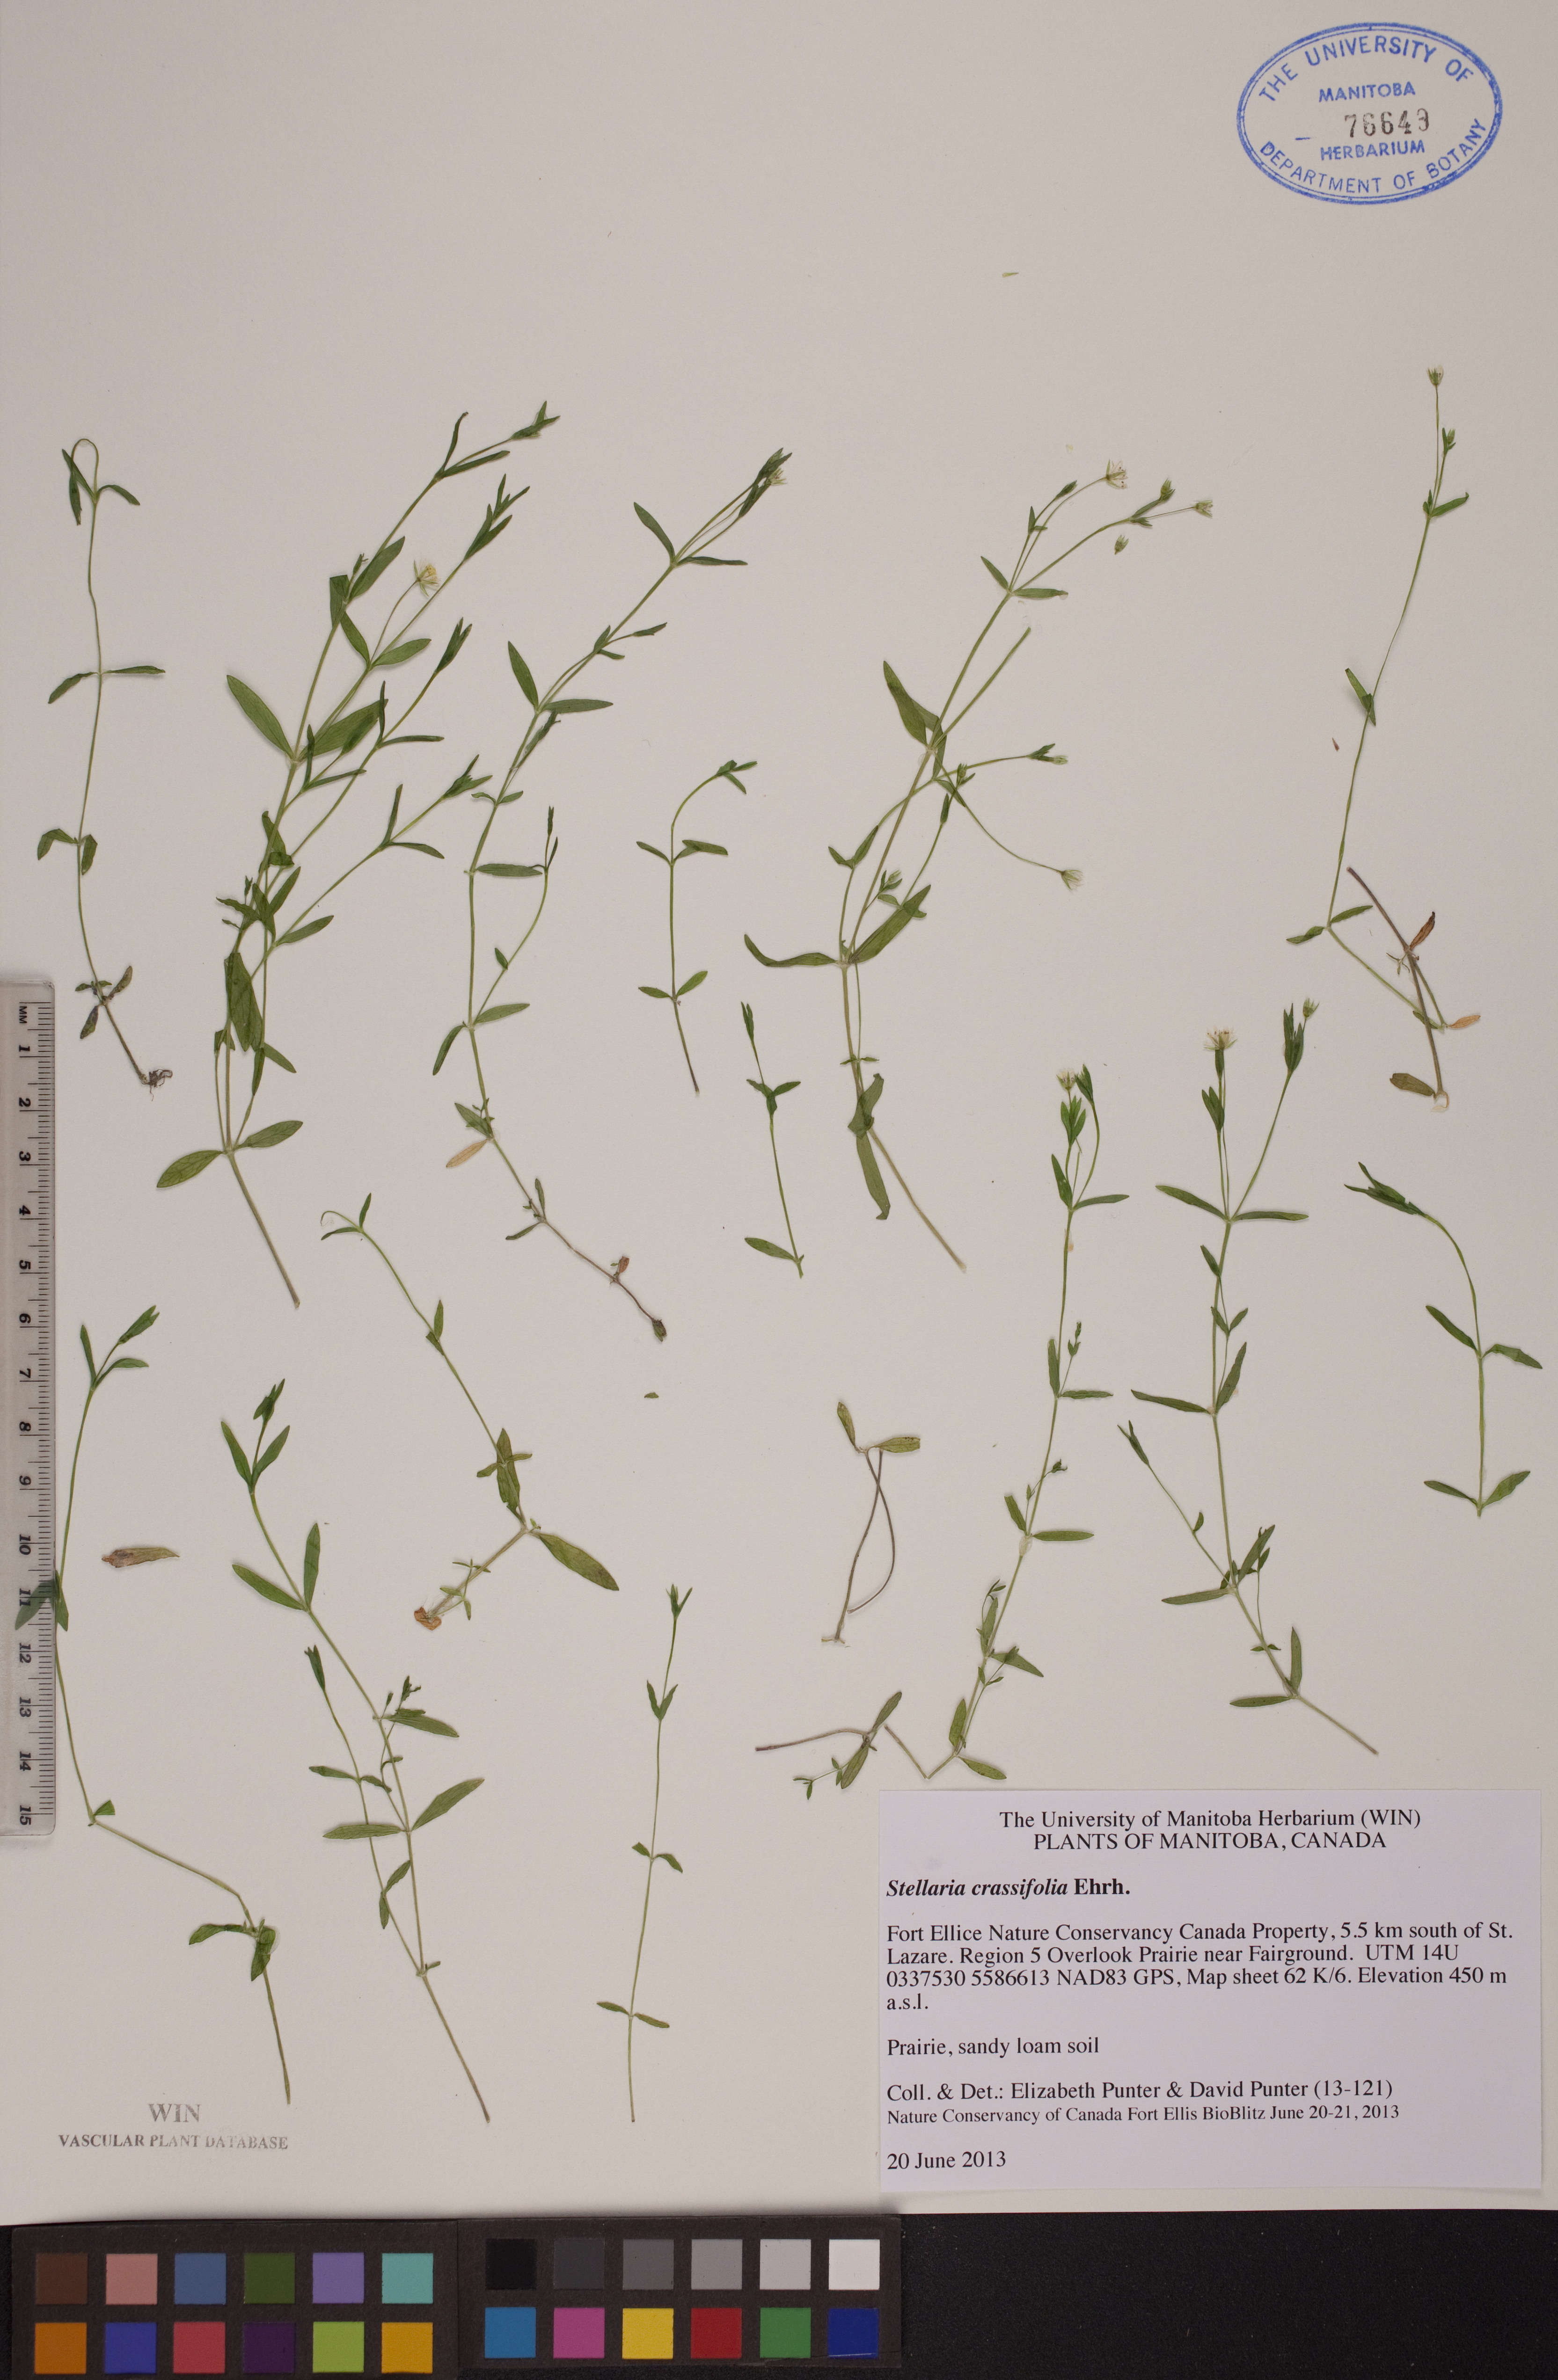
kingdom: Plantae
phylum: Tracheophyta
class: Magnoliopsida
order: Caryophyllales
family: Caryophyllaceae
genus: Stellaria
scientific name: Stellaria crassifolia
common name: Fleshy starwort
